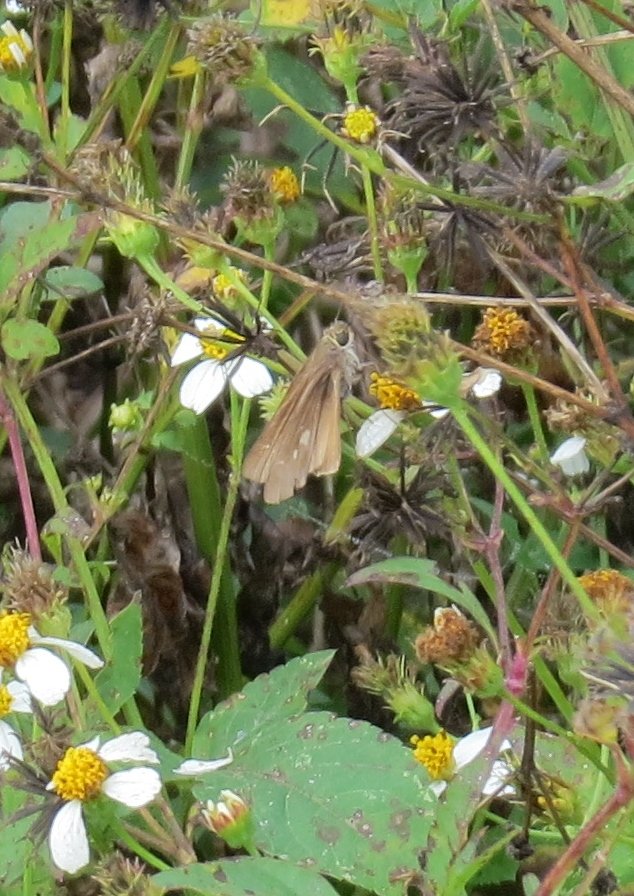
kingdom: Animalia
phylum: Arthropoda
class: Insecta
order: Lepidoptera
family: Hesperiidae
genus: Panoquina
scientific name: Panoquina ocola
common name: Ocola Skipper
